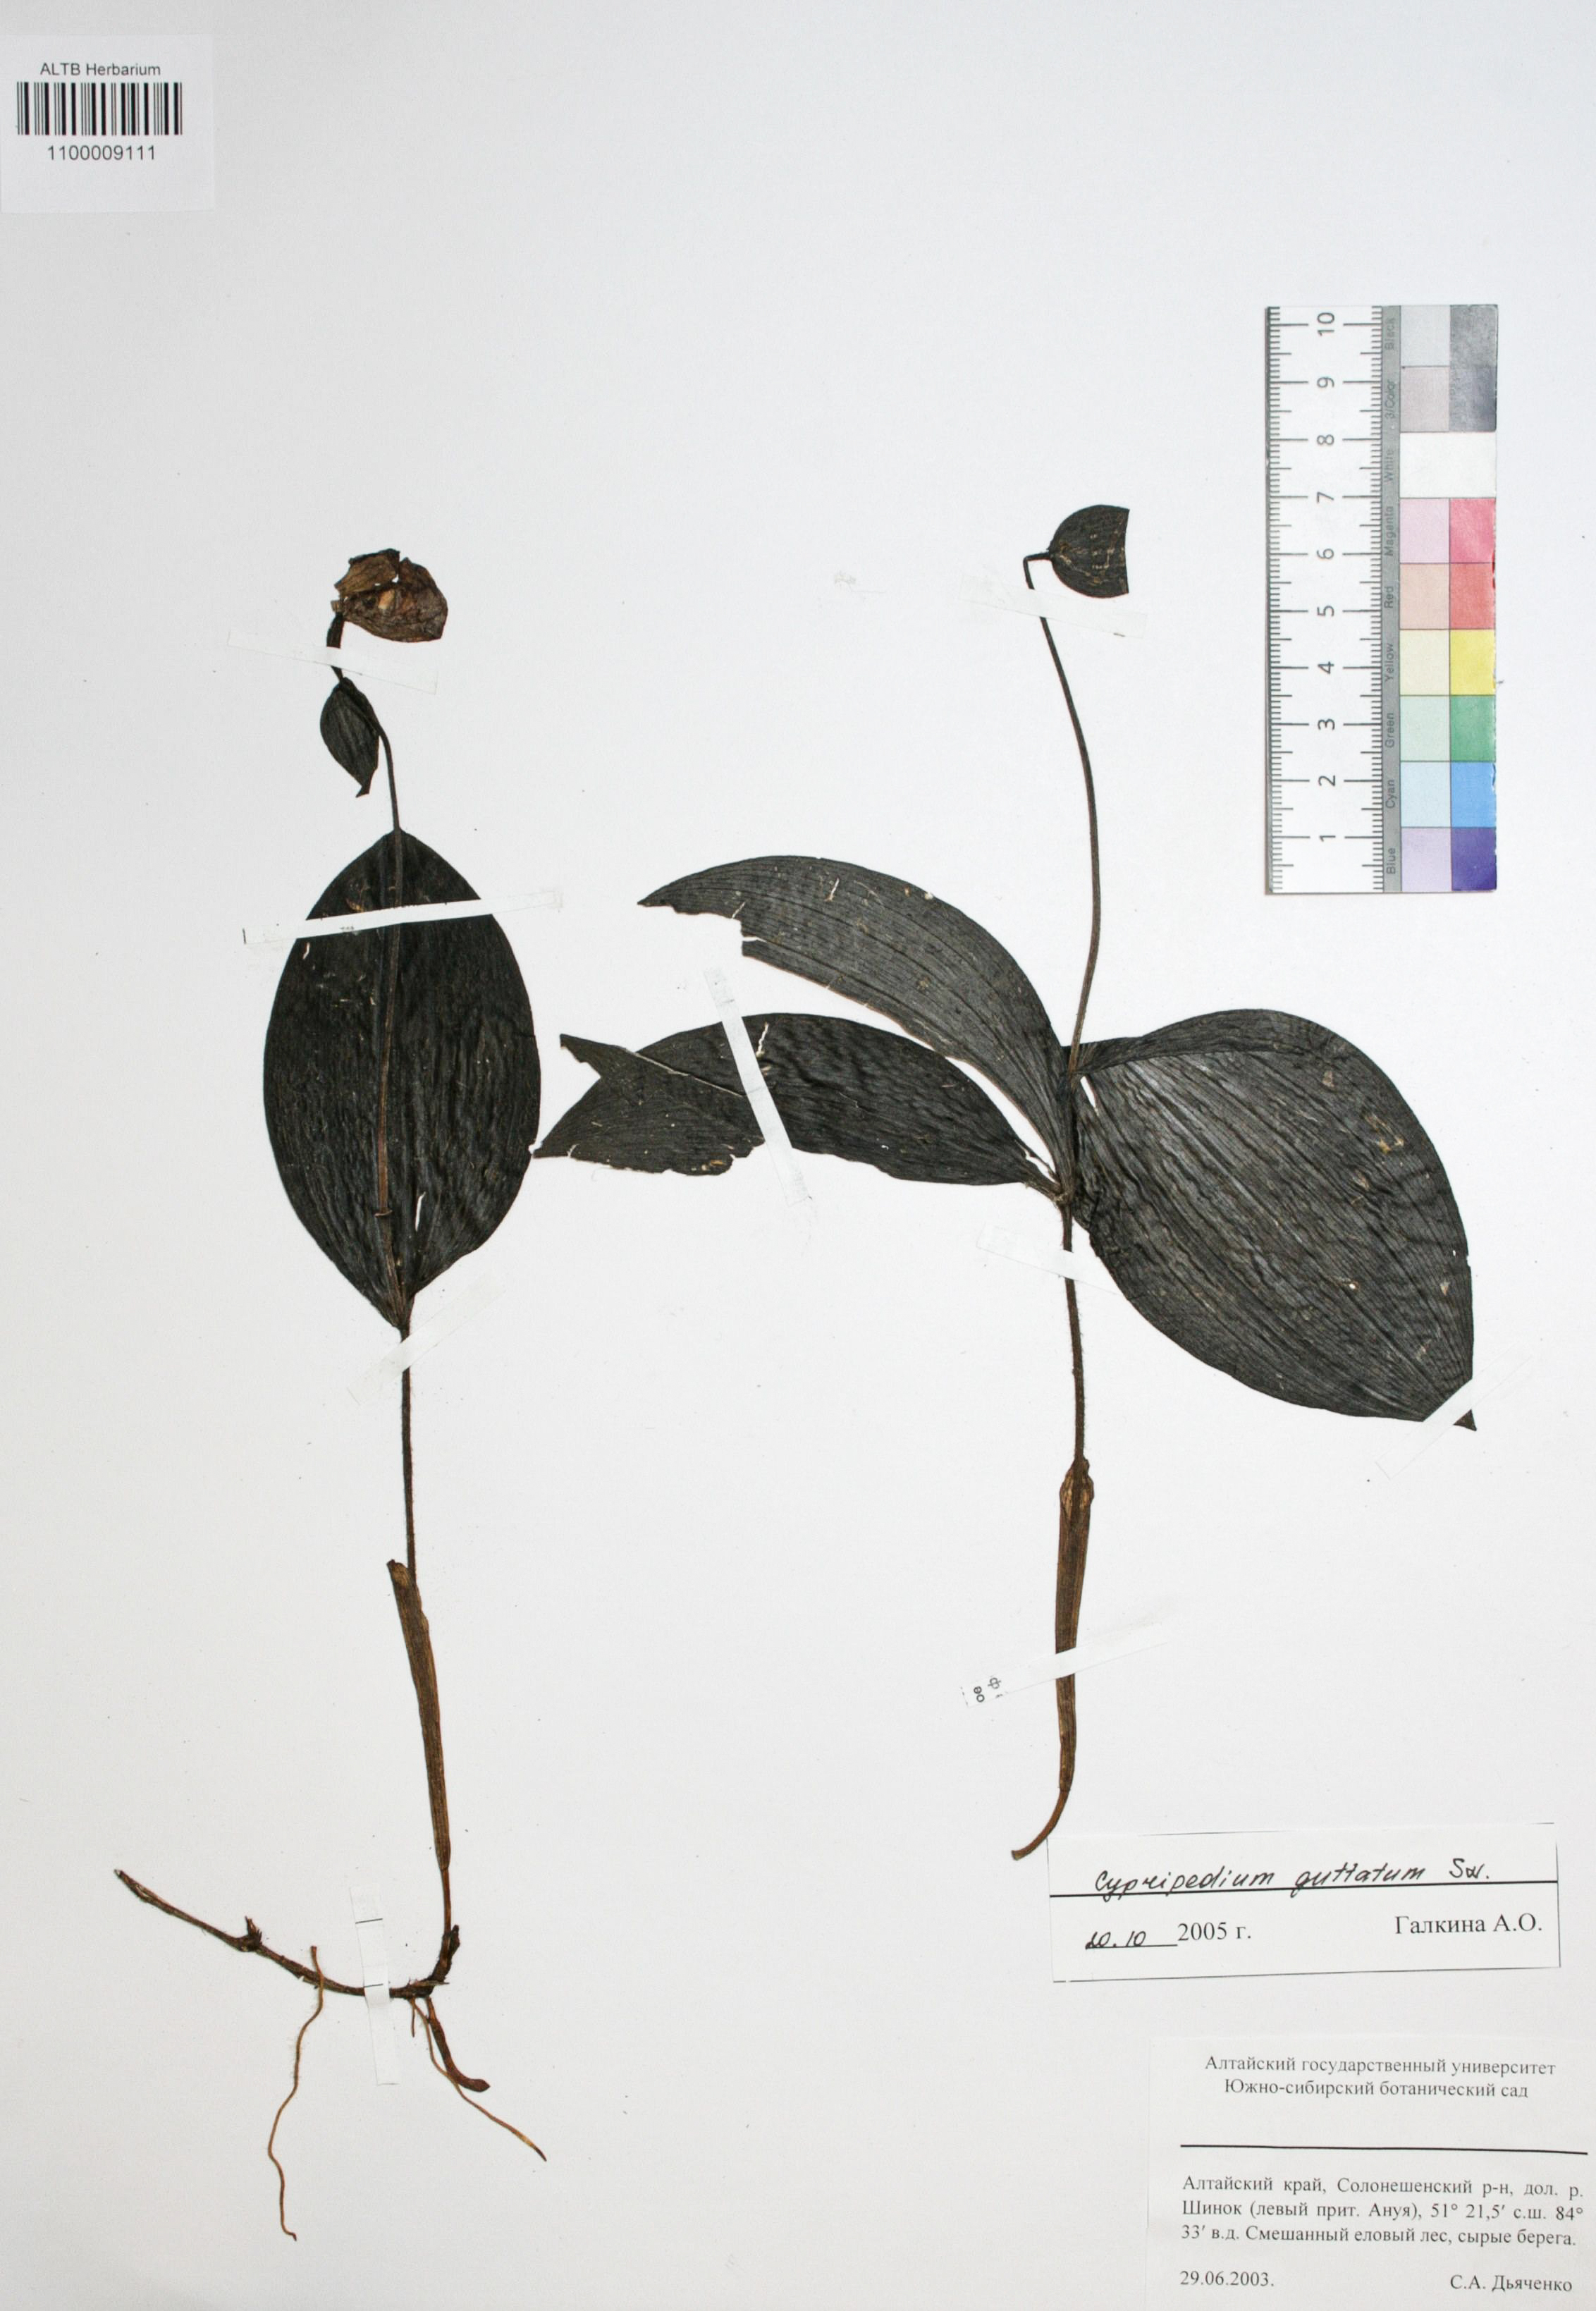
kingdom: Plantae
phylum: Tracheophyta
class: Liliopsida
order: Asparagales
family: Orchidaceae
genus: Cypripedium
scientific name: Cypripedium guttatum
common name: Pink lady slipper
